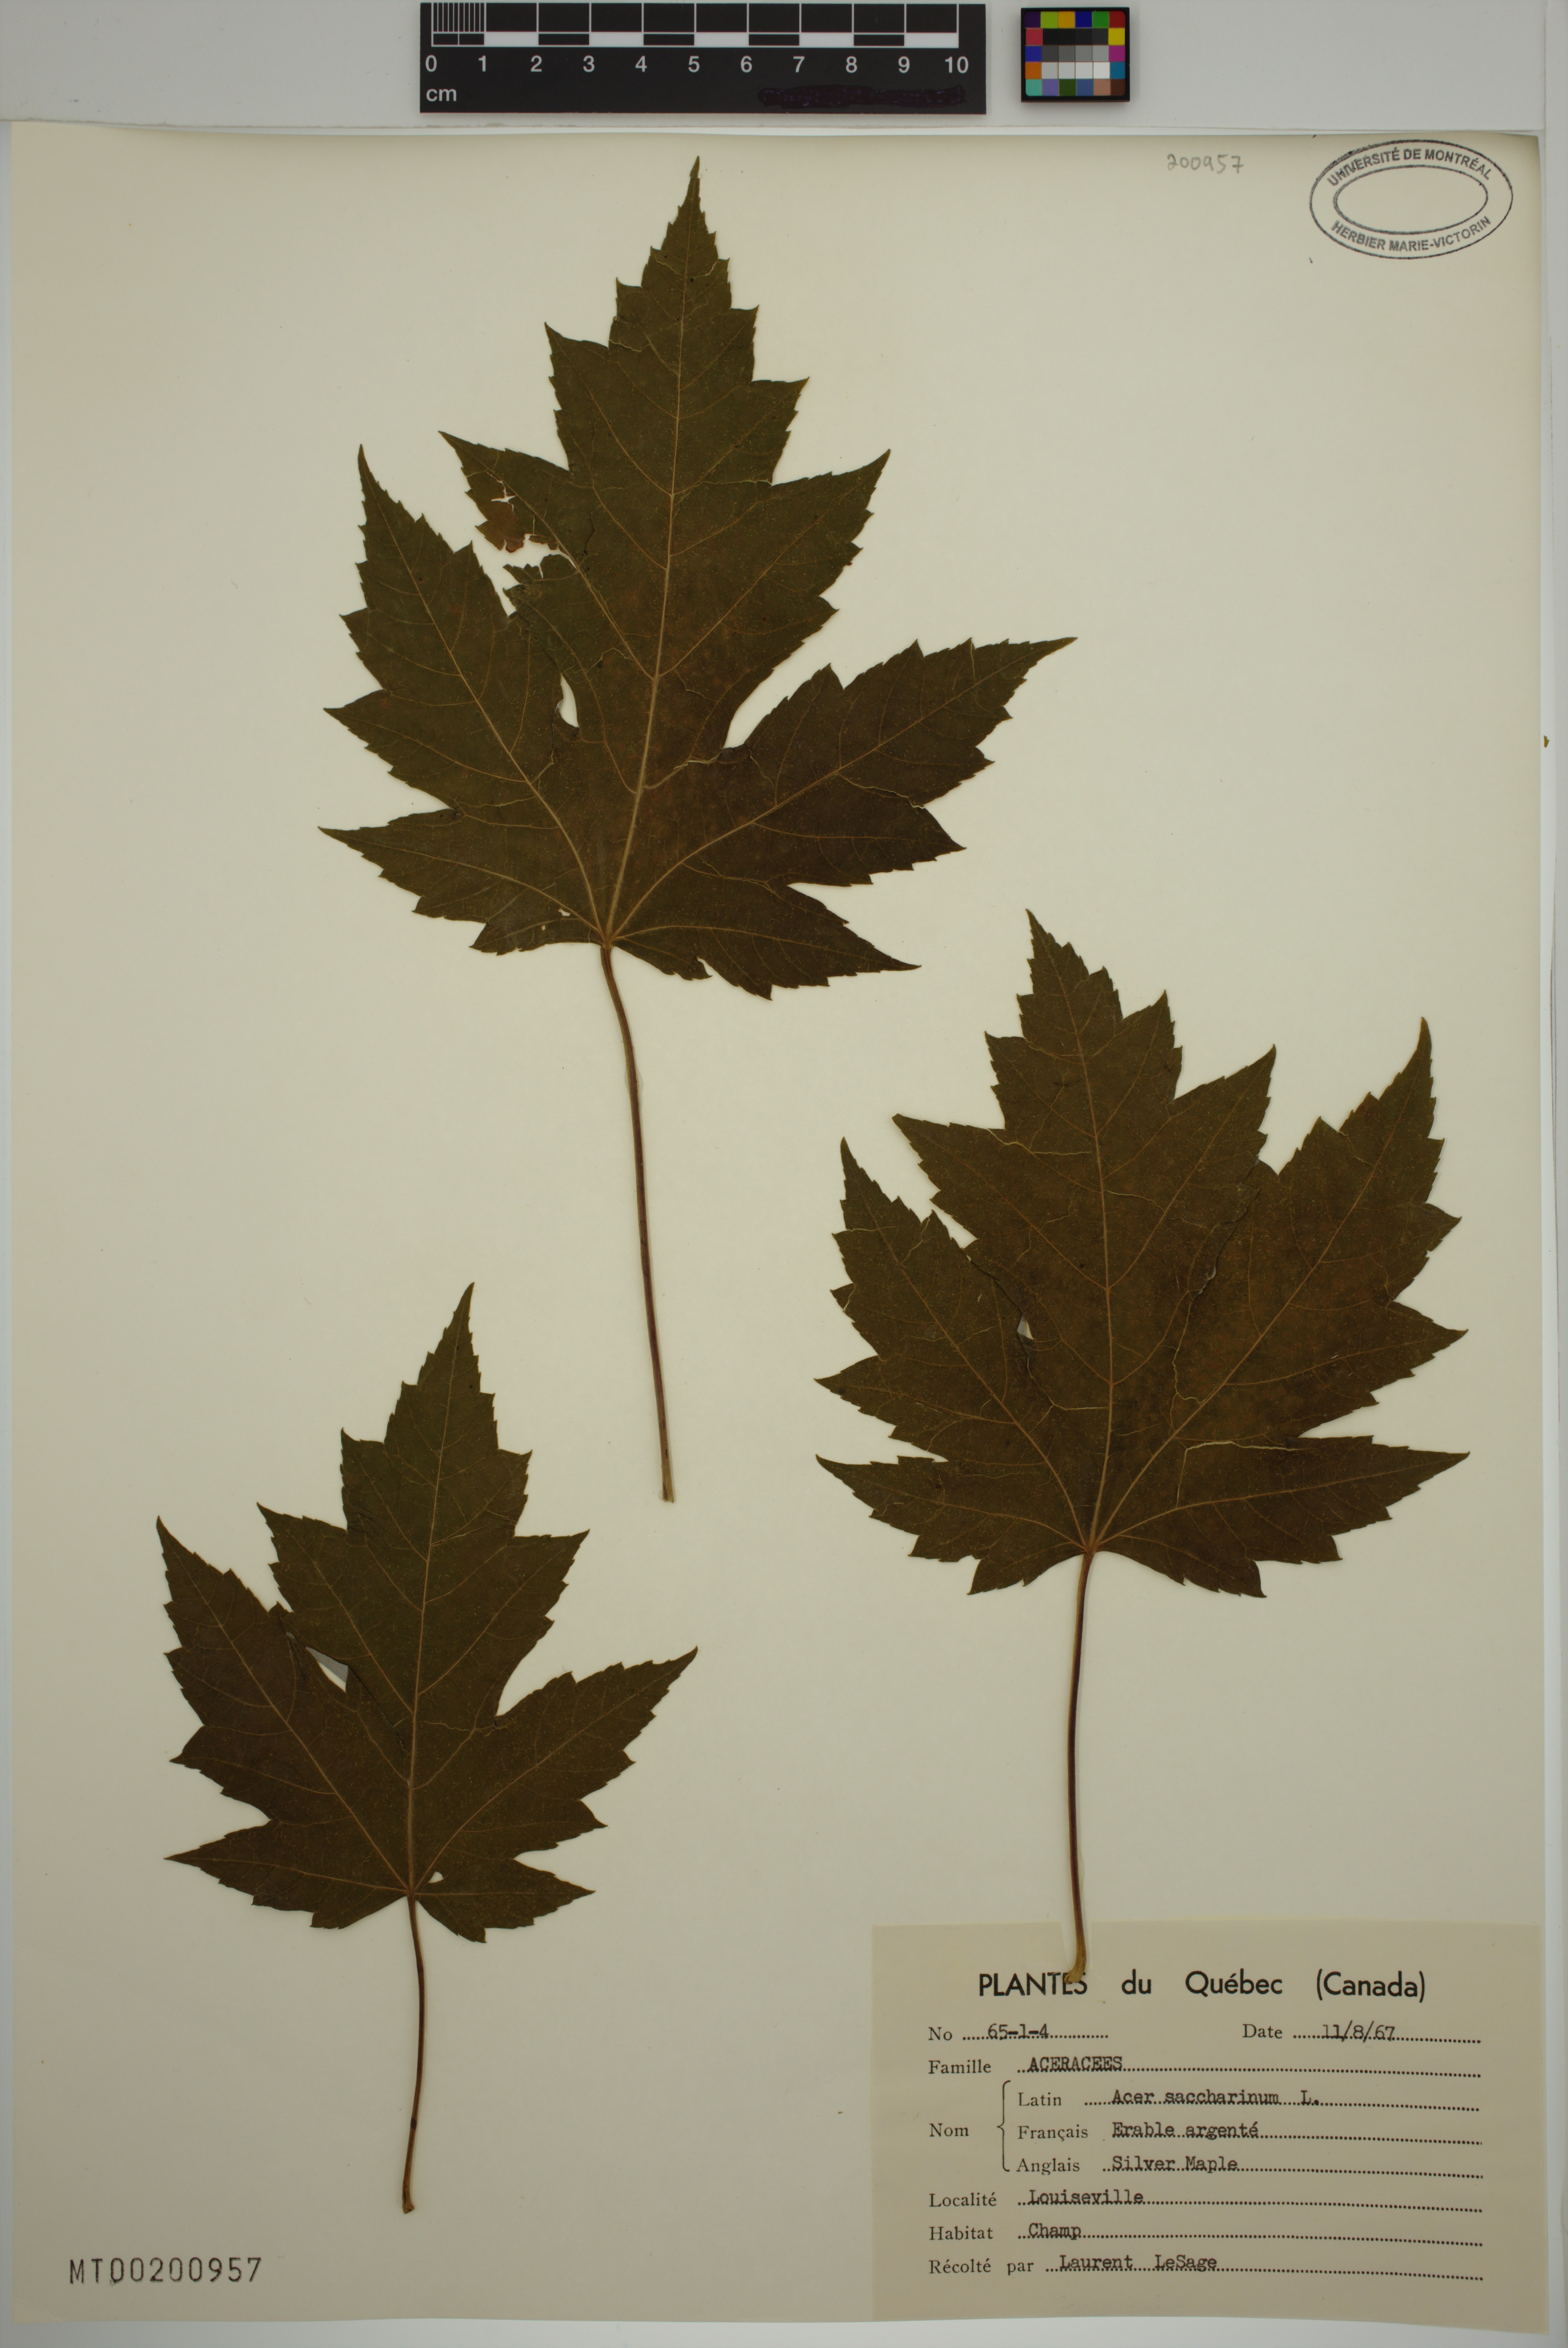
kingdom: Plantae
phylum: Tracheophyta
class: Magnoliopsida
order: Sapindales
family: Sapindaceae
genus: Acer
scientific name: Acer saccharinum
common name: Silver maple
